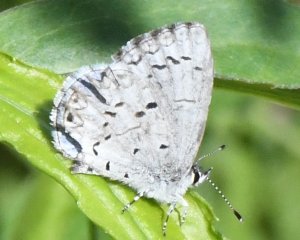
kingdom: Animalia
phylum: Arthropoda
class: Insecta
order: Lepidoptera
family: Lycaenidae
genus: Celastrina
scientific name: Celastrina lucia
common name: Northern Spring Azure
